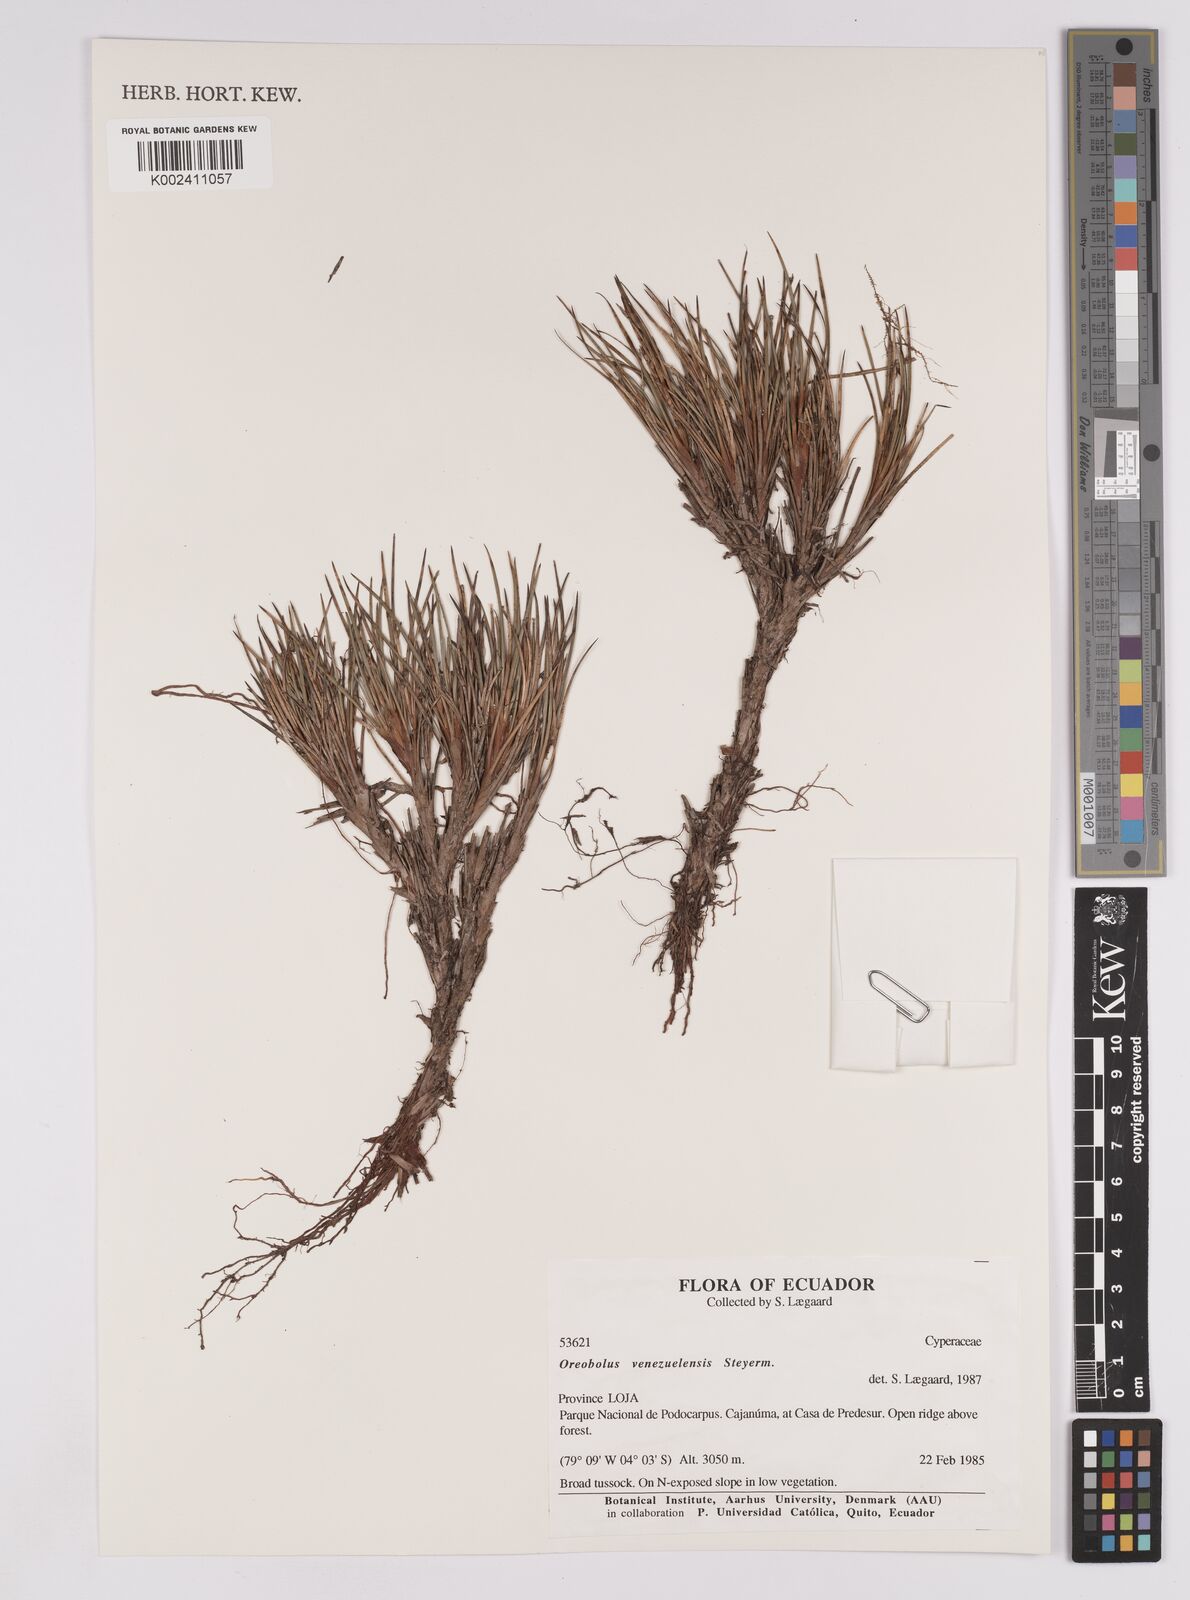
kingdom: Plantae
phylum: Tracheophyta
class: Liliopsida
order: Poales
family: Cyperaceae
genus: Oreobolus
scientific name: Oreobolus venezuelensis
